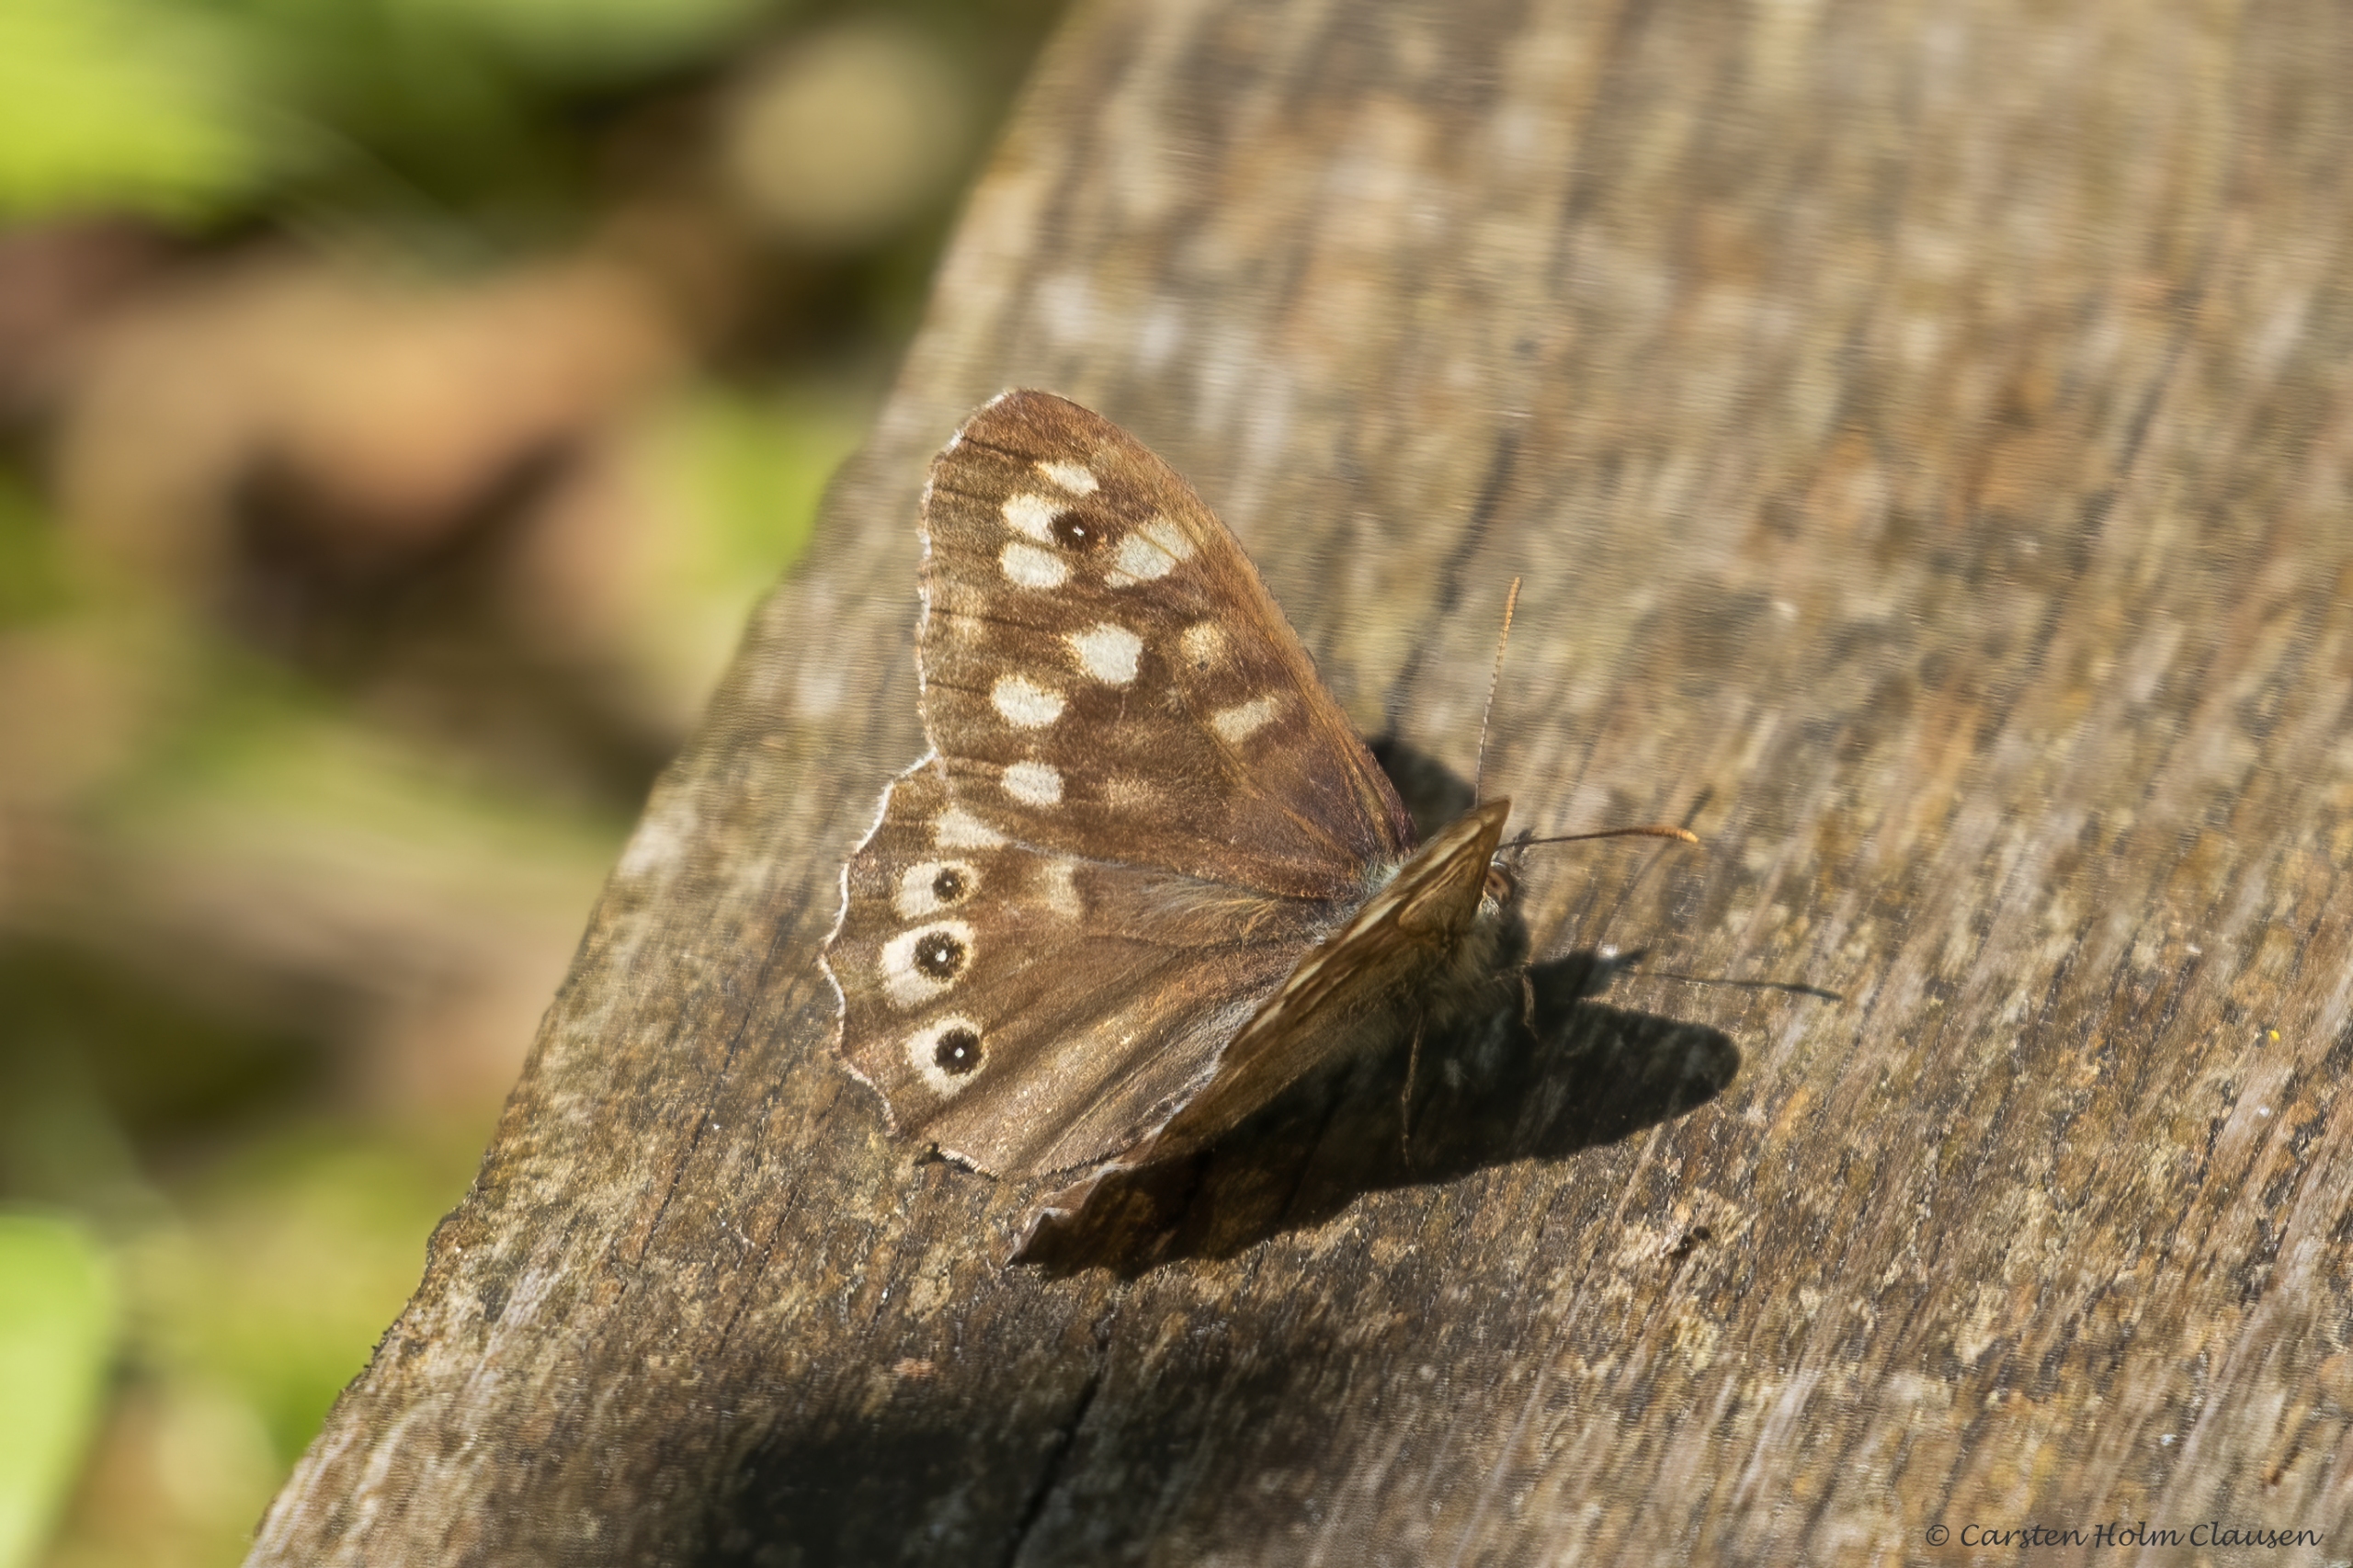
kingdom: Animalia
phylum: Arthropoda
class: Insecta
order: Lepidoptera
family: Nymphalidae
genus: Pararge
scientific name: Pararge aegeria
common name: Skovrandøje
